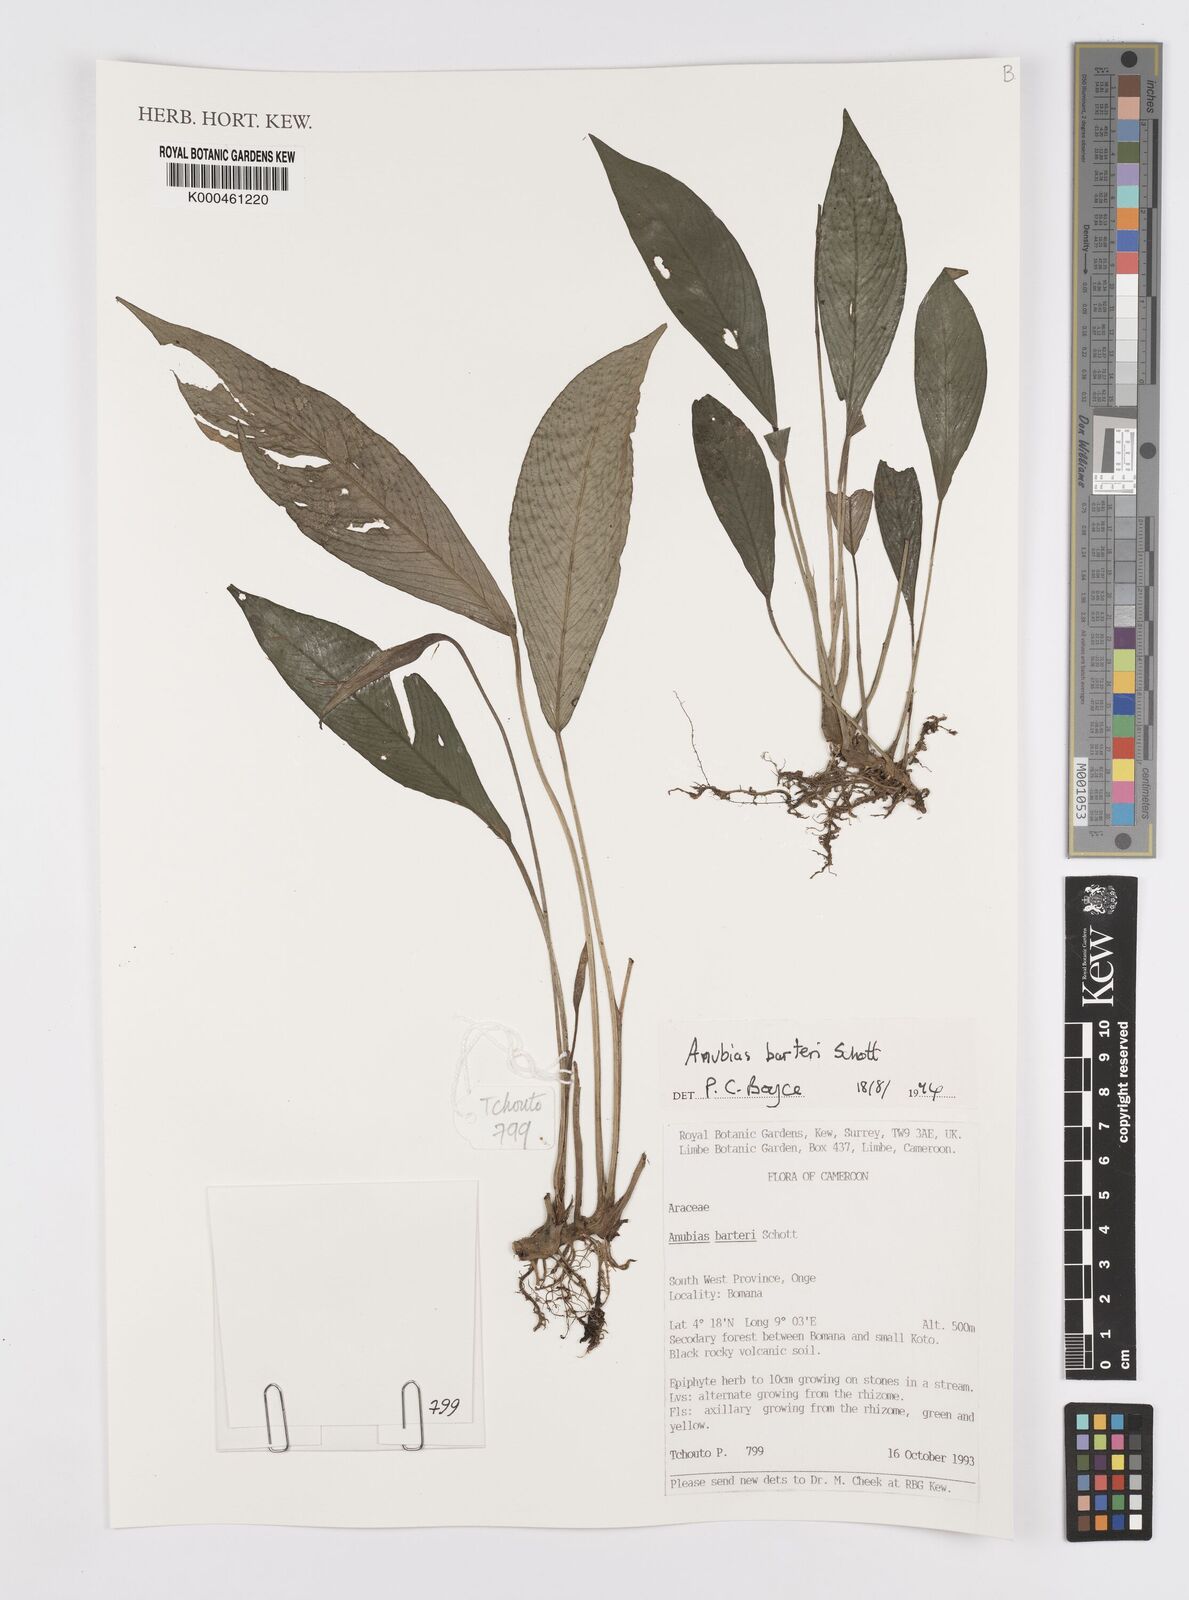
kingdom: Plantae
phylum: Tracheophyta
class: Liliopsida
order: Alismatales
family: Araceae
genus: Anubias
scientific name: Anubias barteri
